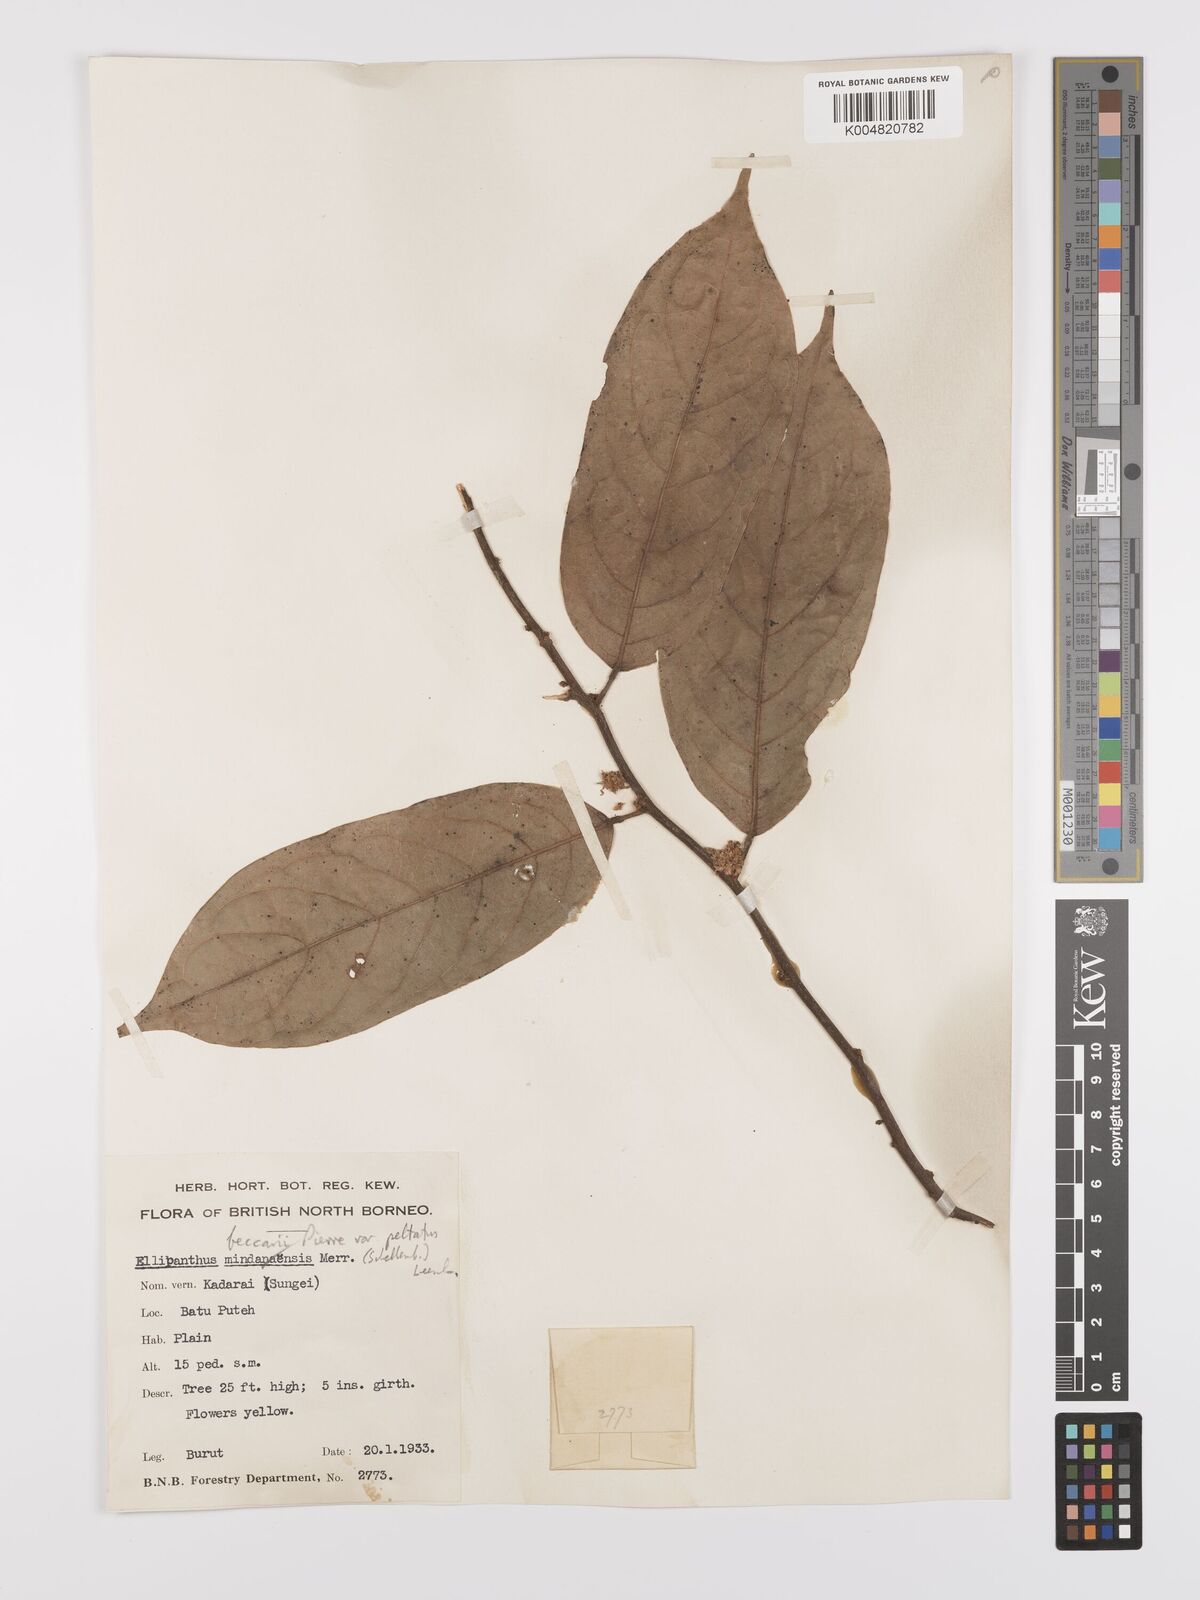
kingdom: Plantae
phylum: Tracheophyta
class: Magnoliopsida
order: Oxalidales
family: Connaraceae
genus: Ellipanthus
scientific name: Ellipanthus beccarii
